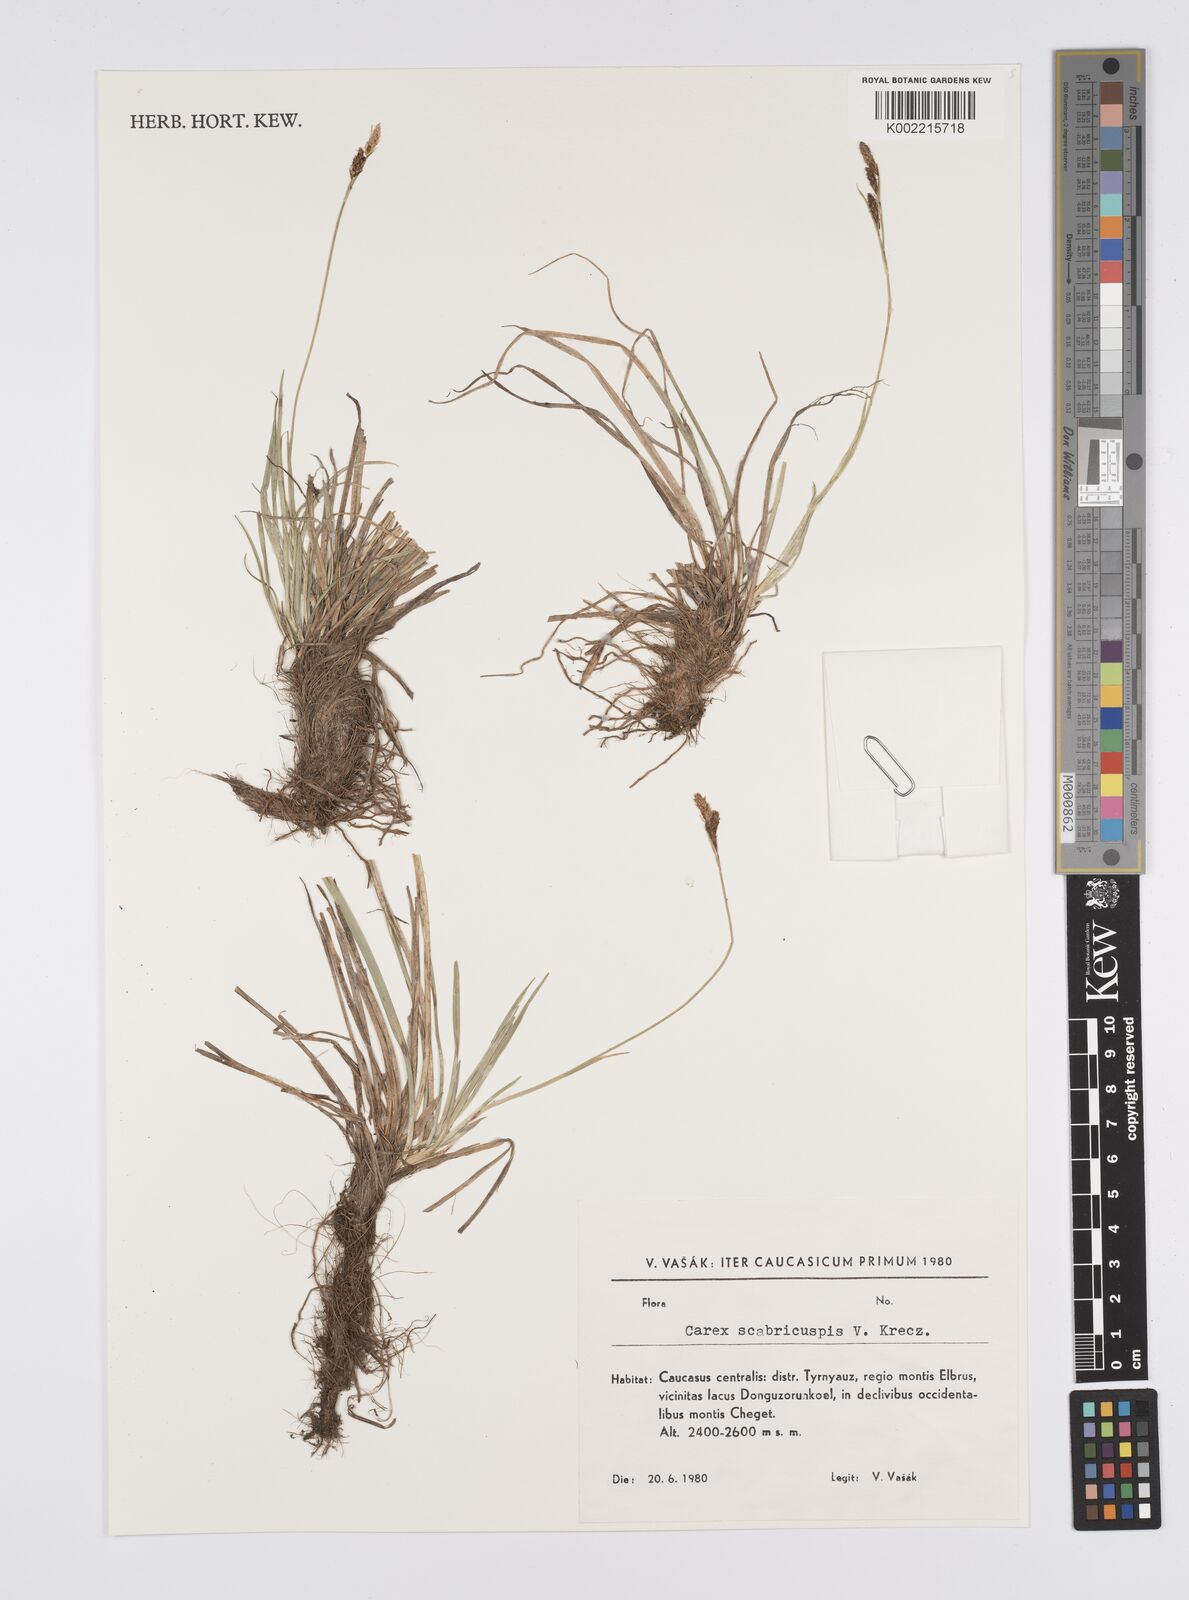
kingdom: Plantae
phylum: Tracheophyta
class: Liliopsida
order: Poales
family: Cyperaceae
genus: Carex
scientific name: Carex caryophyllea
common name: Spring sedge
